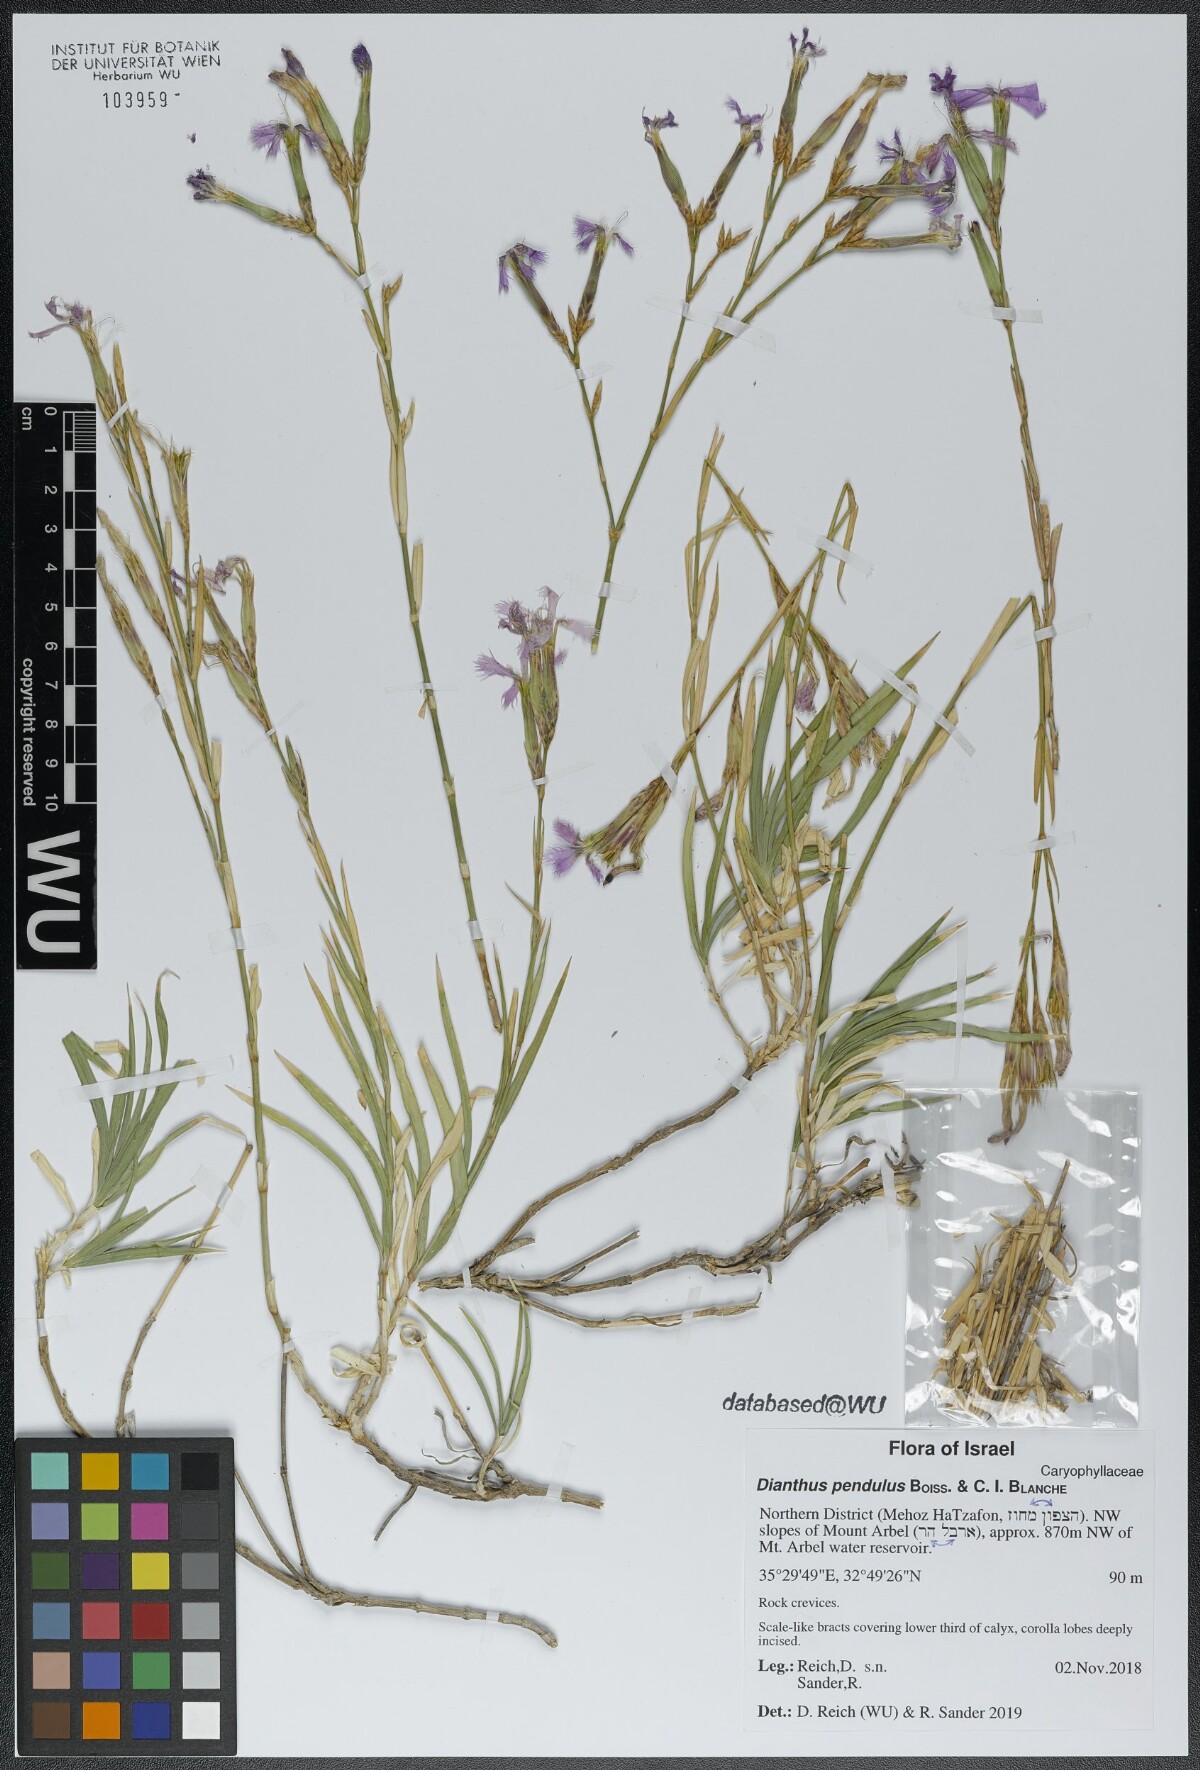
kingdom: Plantae
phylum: Tracheophyta
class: Magnoliopsida
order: Caryophyllales
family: Caryophyllaceae
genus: Dianthus
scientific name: Dianthus pendulus
